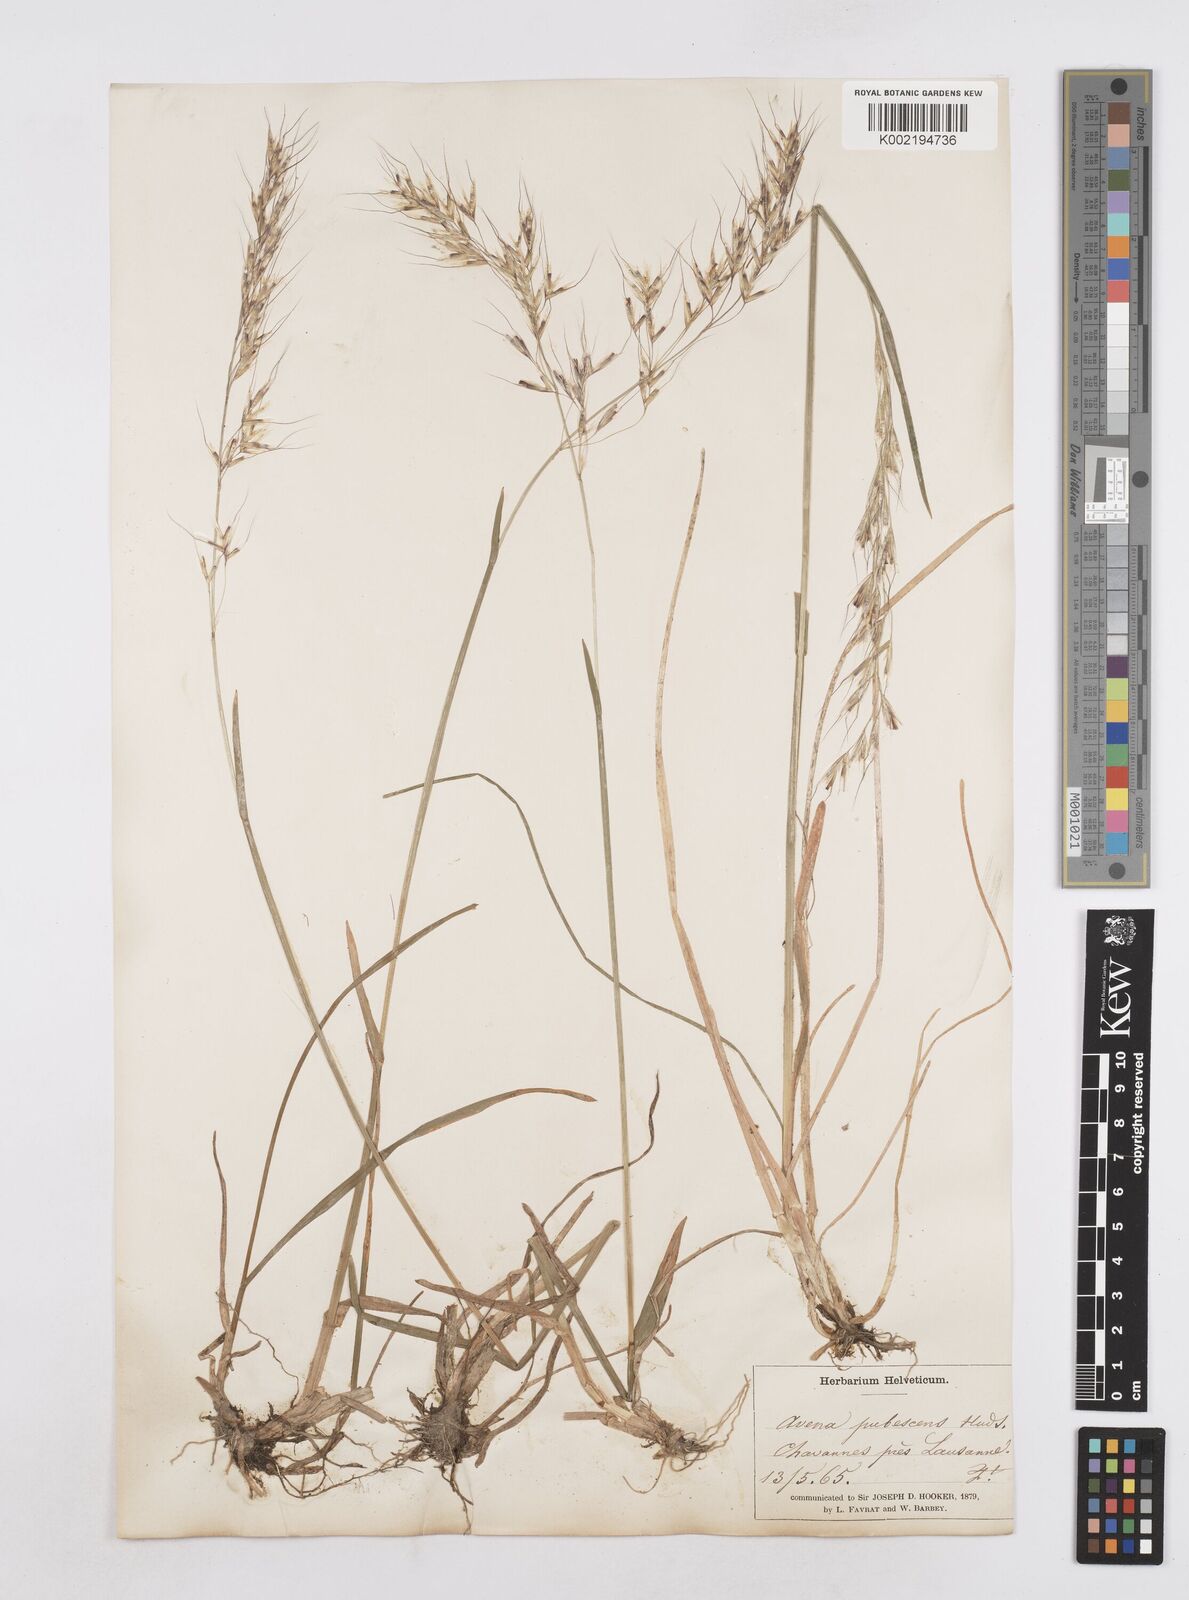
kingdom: Plantae
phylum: Tracheophyta
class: Liliopsida
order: Poales
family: Poaceae
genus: Avenula
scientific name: Avenula pubescens
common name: Downy alpine oatgrass
